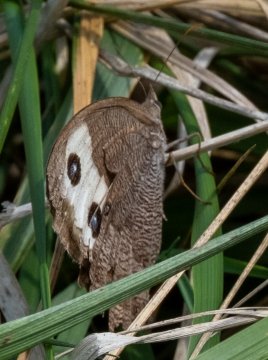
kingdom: Animalia
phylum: Arthropoda
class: Insecta
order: Lepidoptera
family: Nymphalidae
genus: Cercyonis
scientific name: Cercyonis pegala
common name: Common Wood-Nymph
